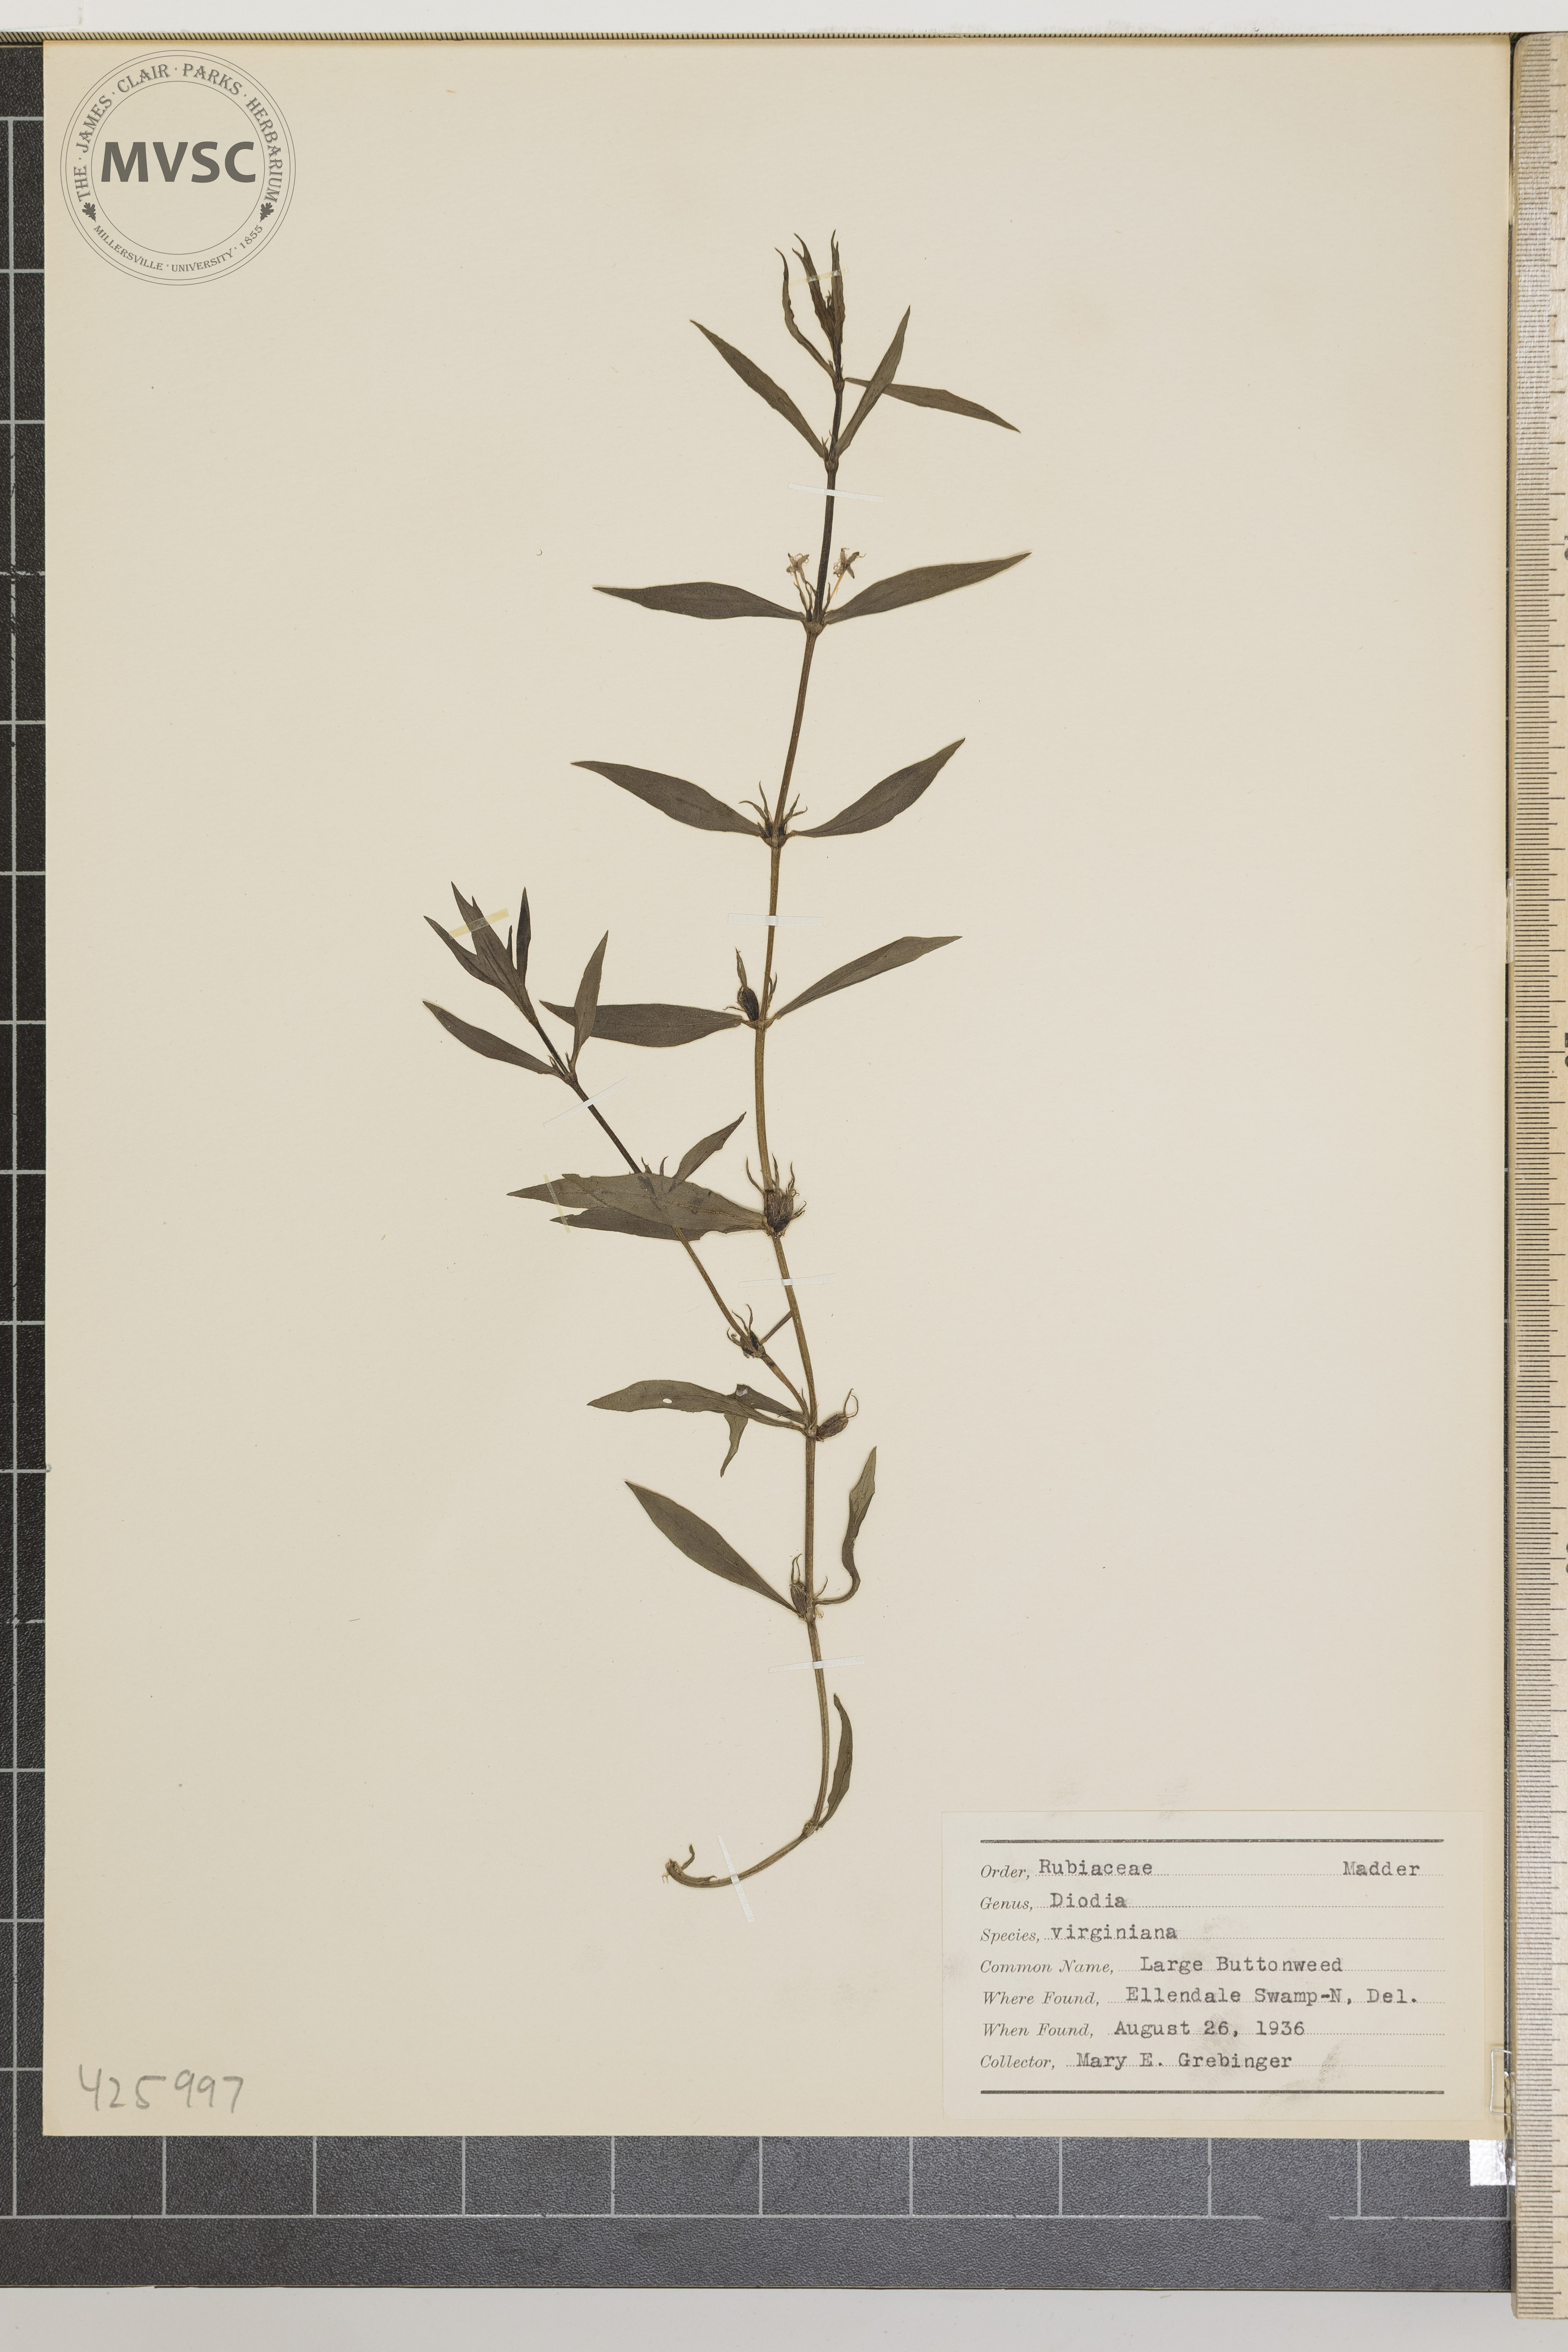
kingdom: Plantae
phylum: Tracheophyta
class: Magnoliopsida
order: Gentianales
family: Rubiaceae
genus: Diodia
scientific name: Diodia virginiana
